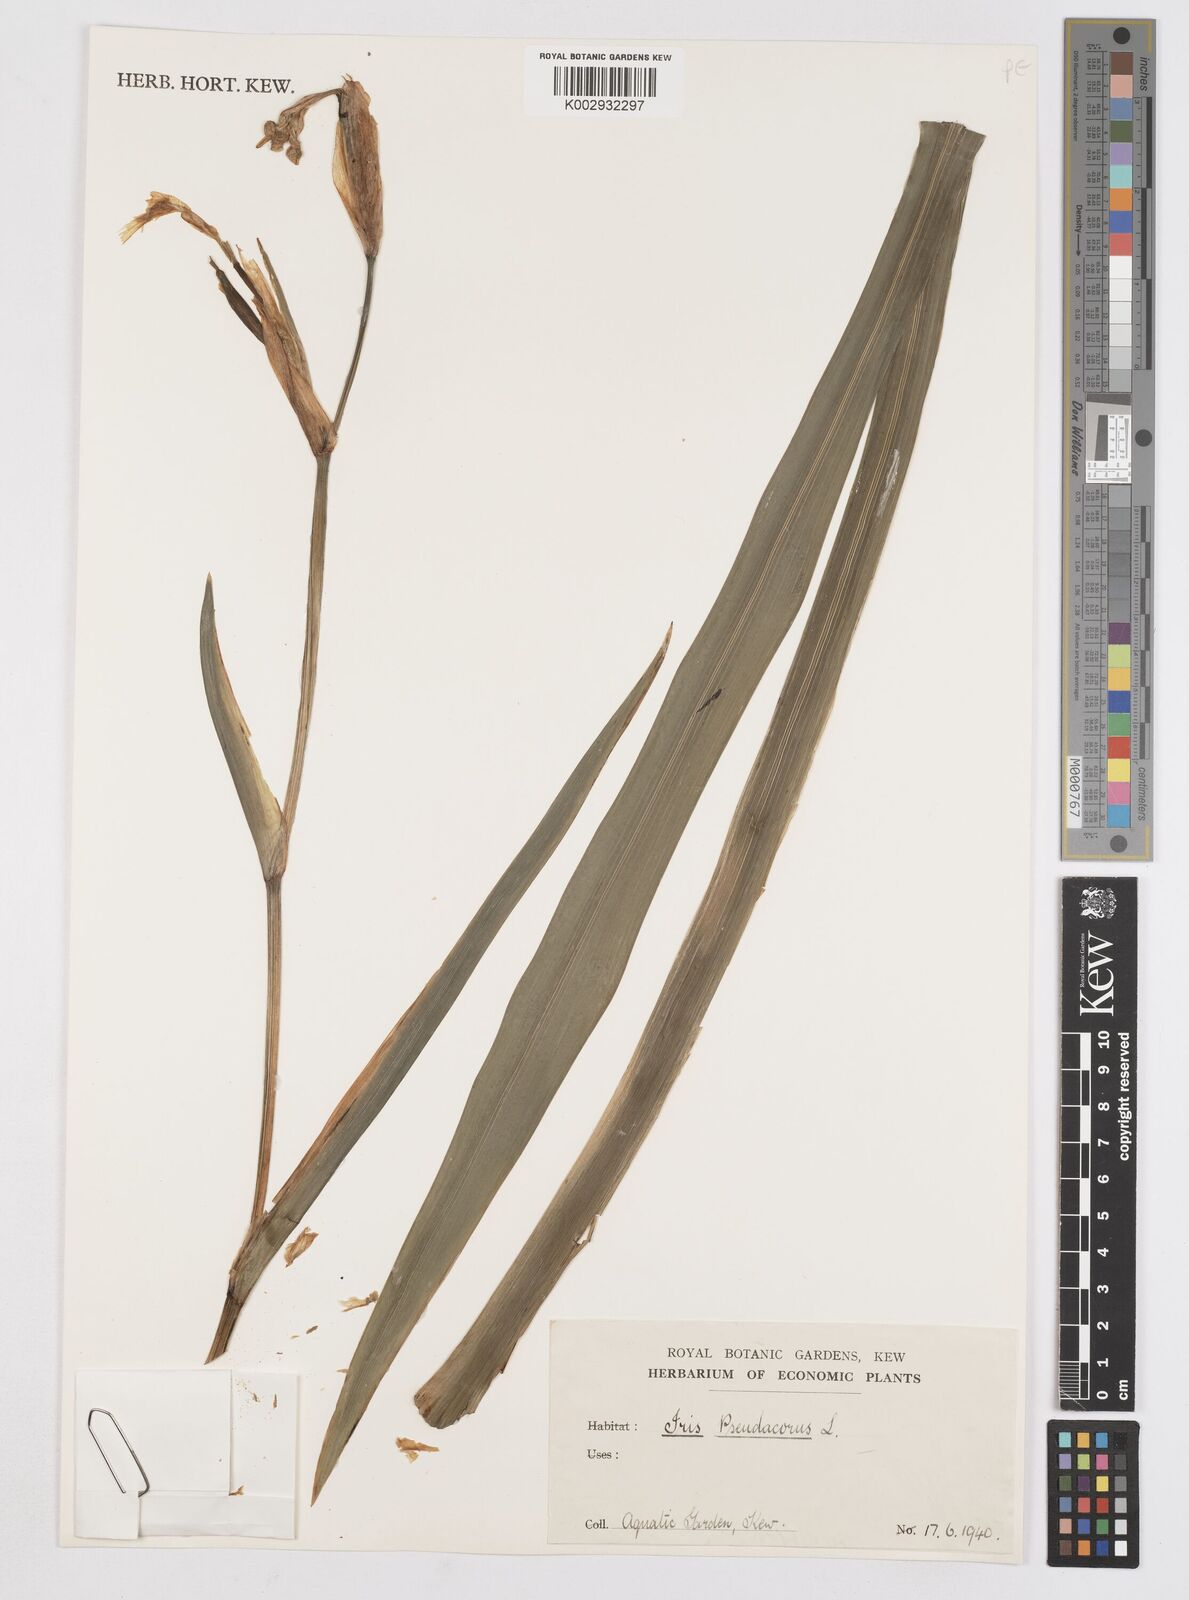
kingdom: Plantae
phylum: Tracheophyta
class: Liliopsida
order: Asparagales
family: Iridaceae
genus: Iris
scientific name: Iris pseudacorus
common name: Yellow flag
